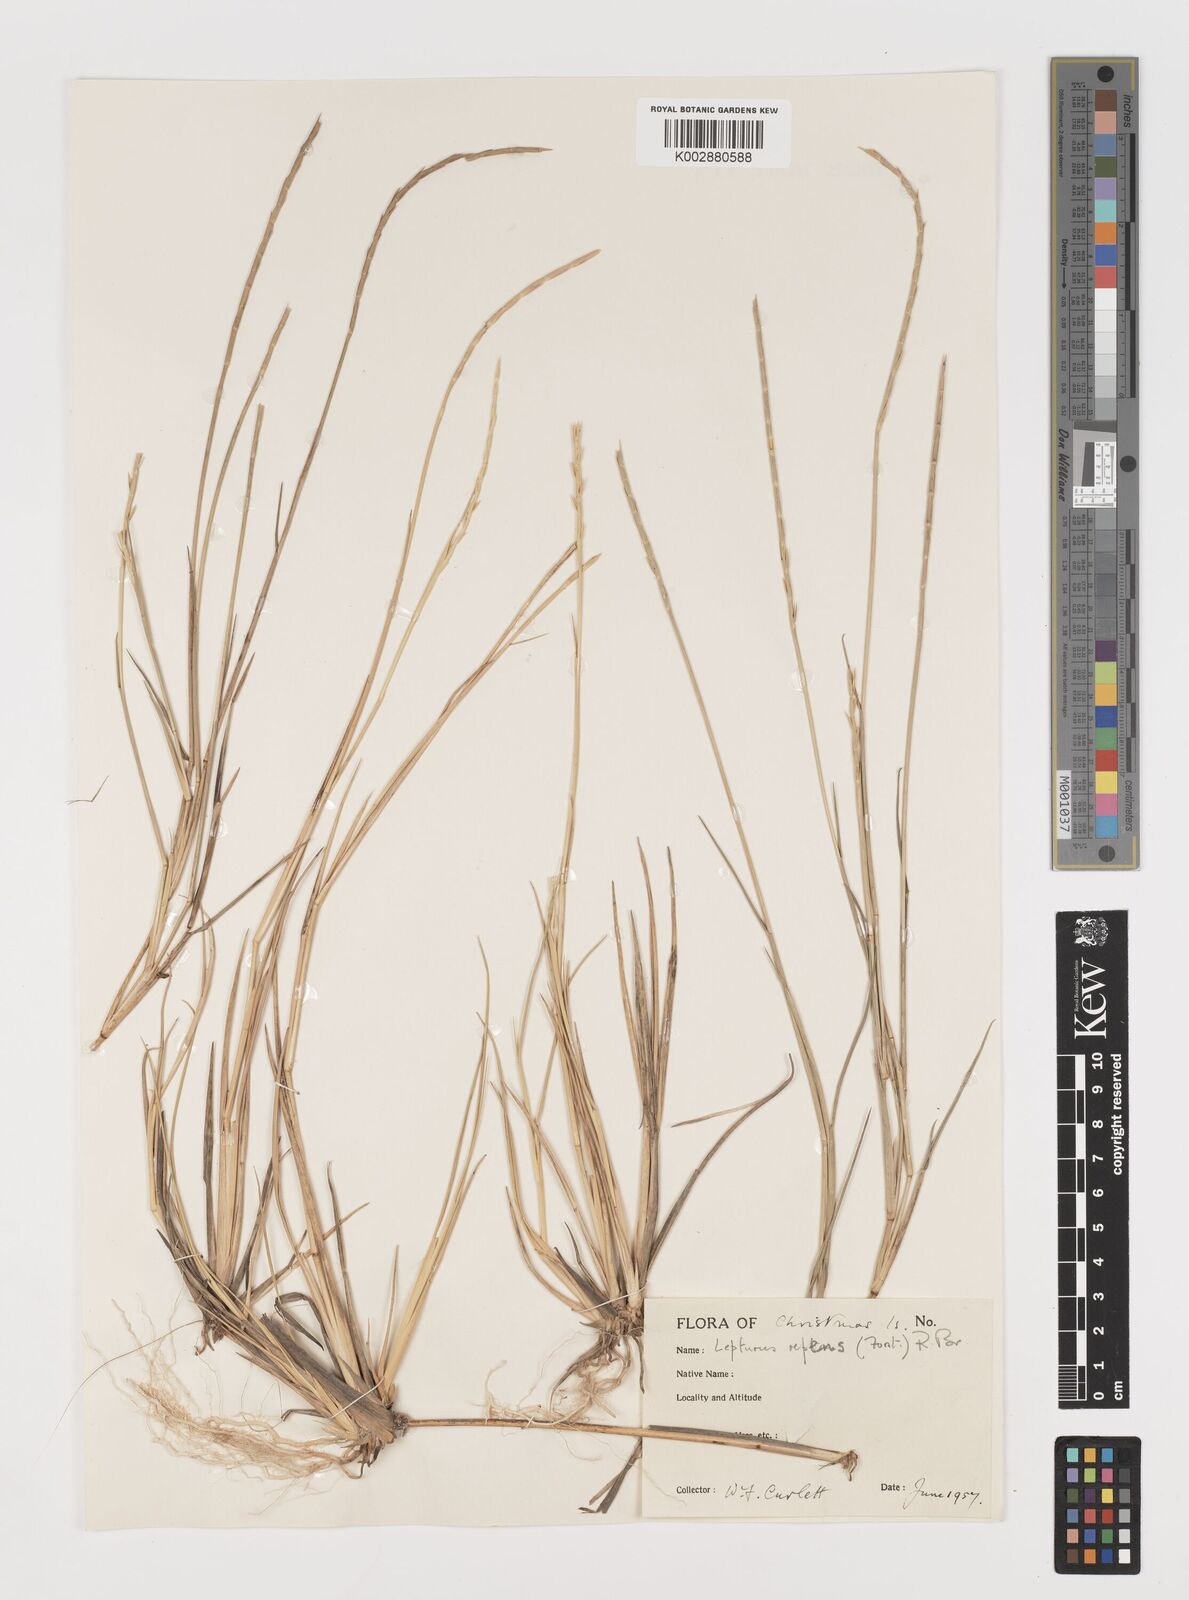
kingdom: Plantae
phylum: Tracheophyta
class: Liliopsida
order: Poales
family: Poaceae
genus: Lepturus
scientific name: Lepturus repens
